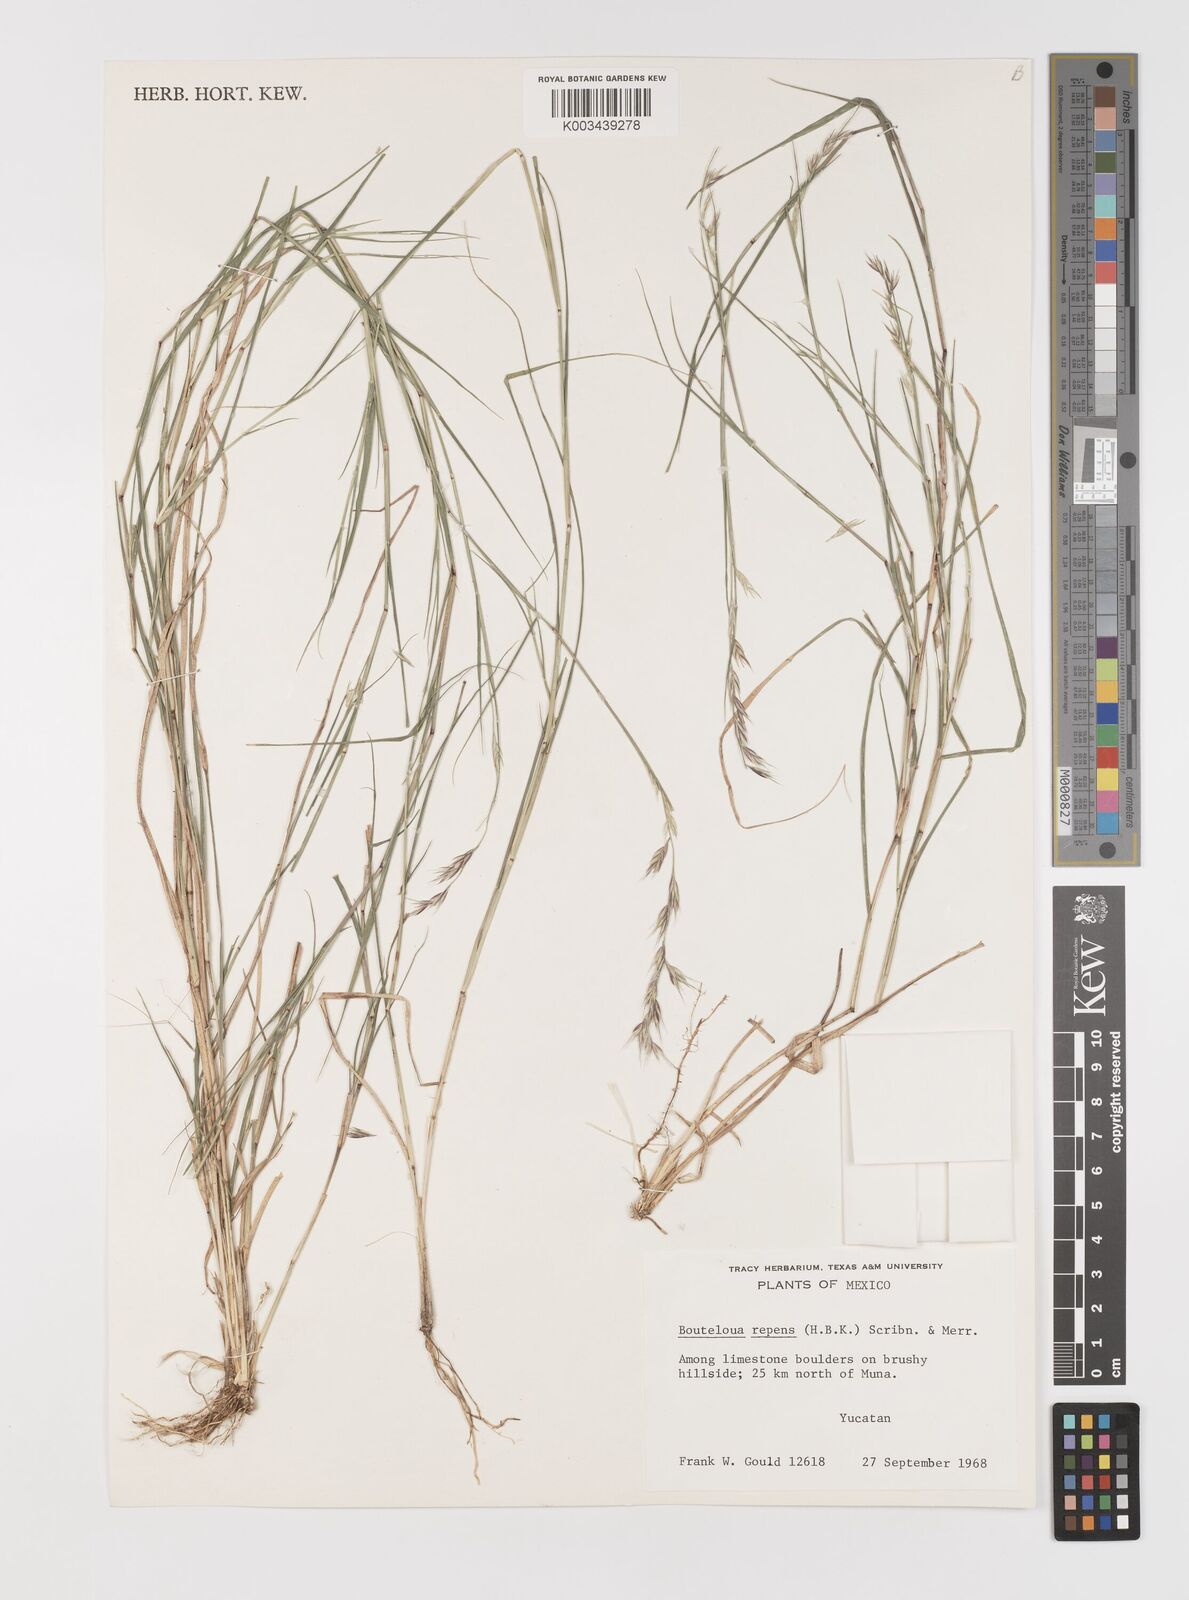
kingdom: Plantae
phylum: Tracheophyta
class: Liliopsida
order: Poales
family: Poaceae
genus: Bouteloua
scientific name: Bouteloua repens
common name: Slender grama
